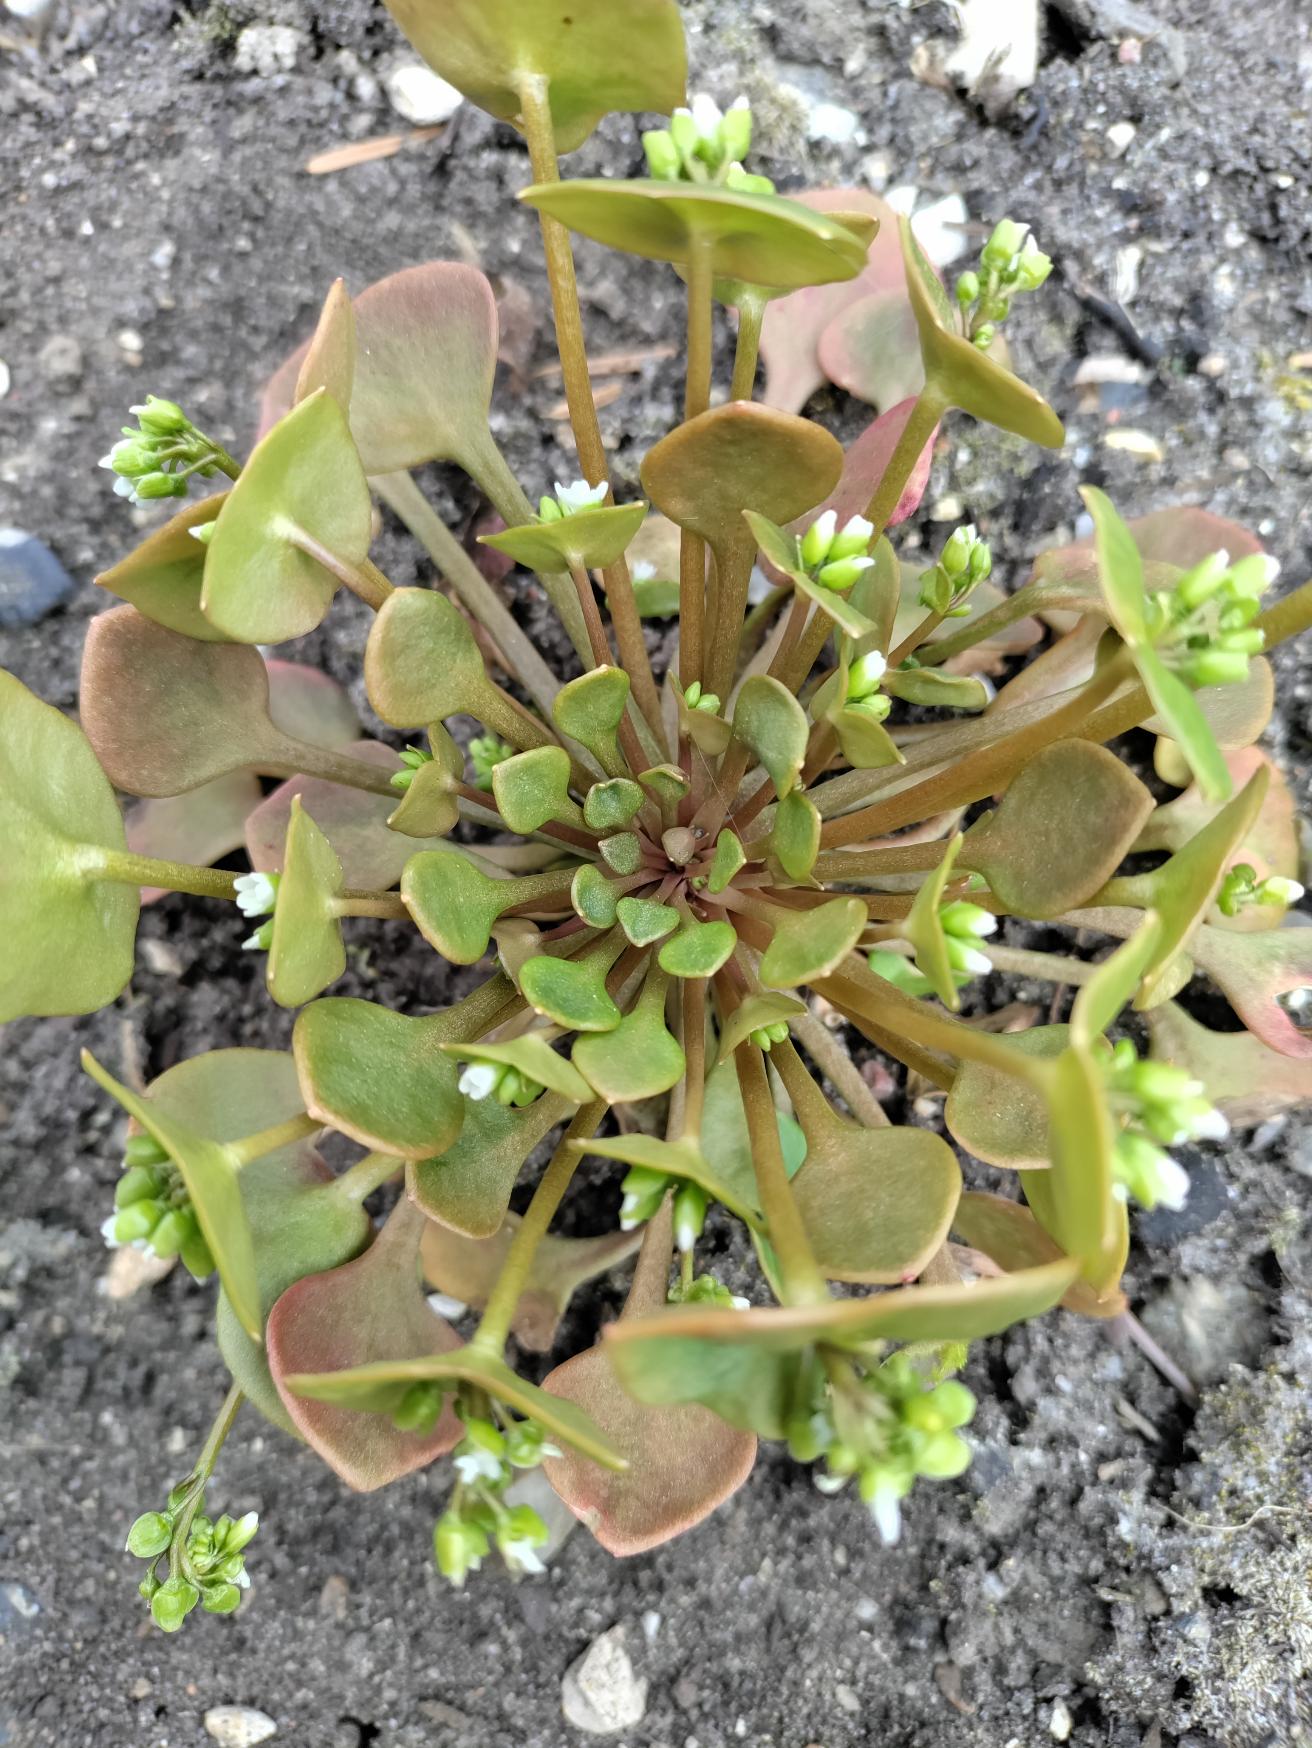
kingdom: Plantae
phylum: Tracheophyta
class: Magnoliopsida
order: Caryophyllales
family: Montiaceae
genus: Claytonia
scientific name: Claytonia perfoliata
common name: Spiselig vinterportulak
